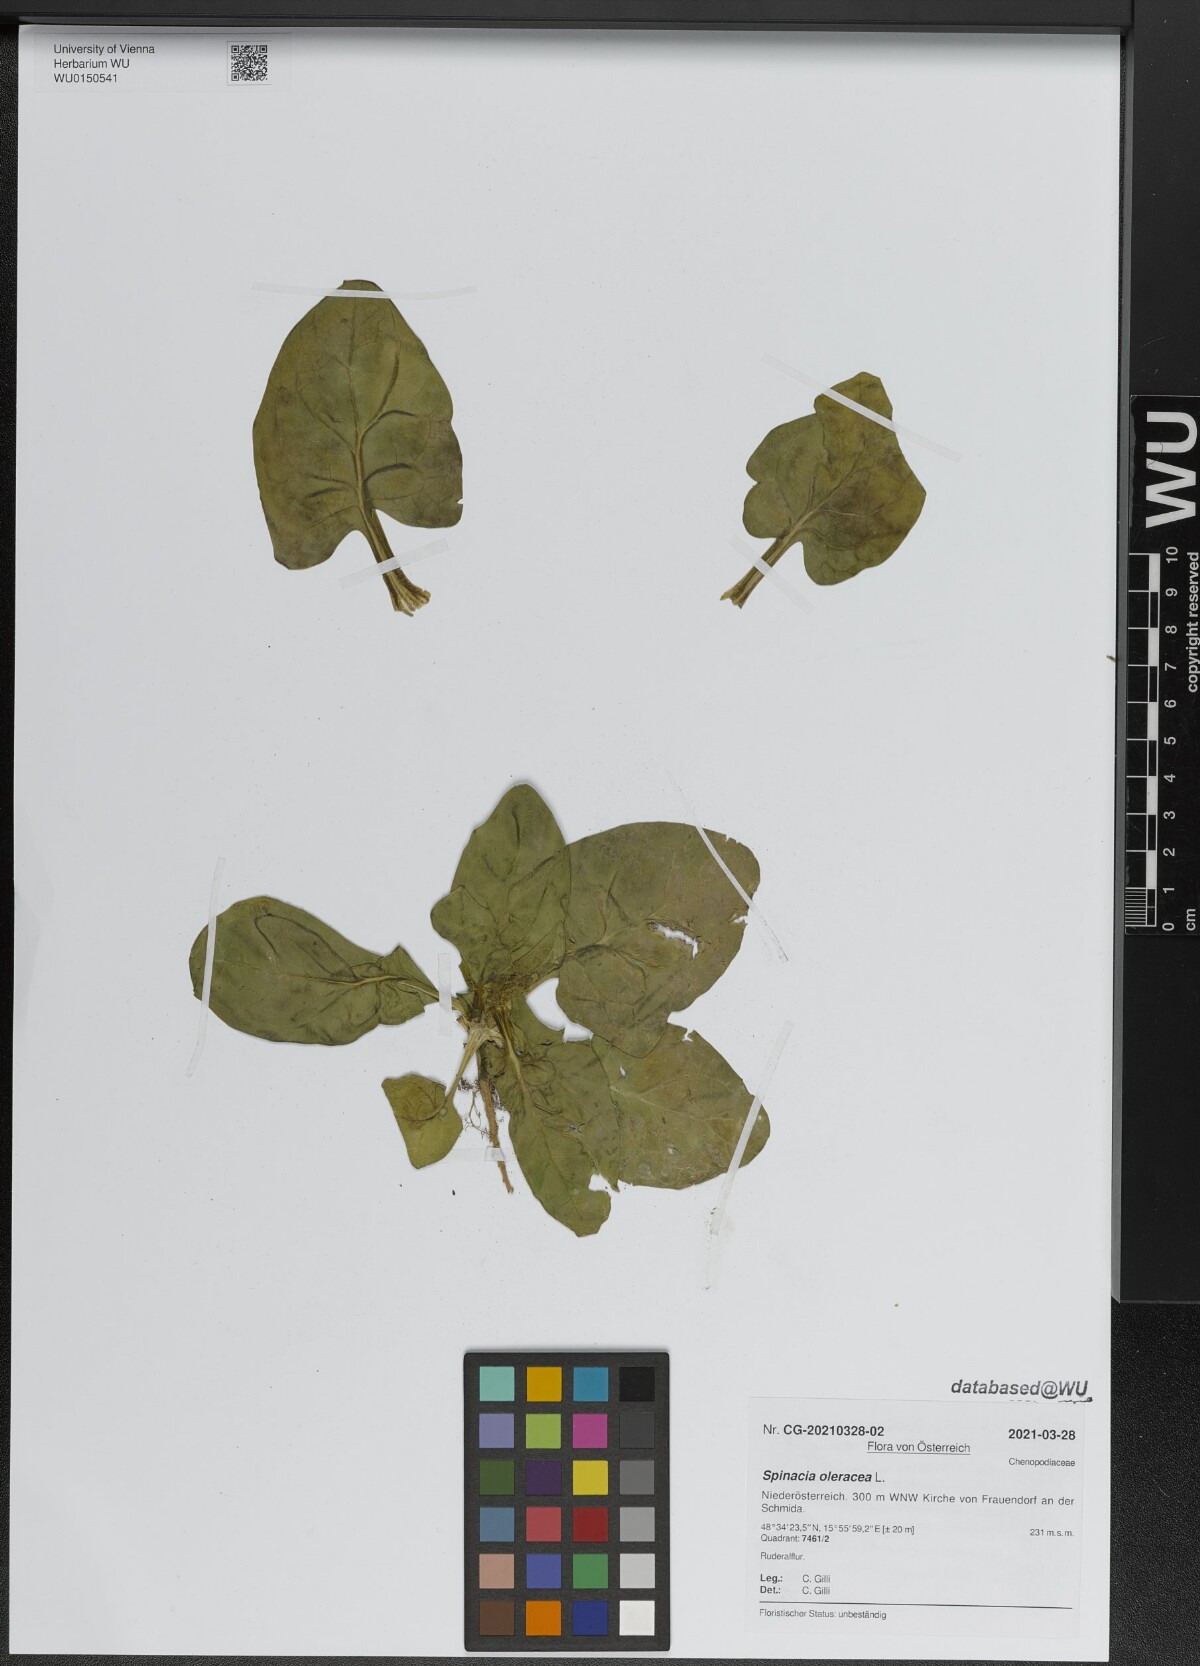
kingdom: Plantae
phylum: Tracheophyta
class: Magnoliopsida
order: Caryophyllales
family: Amaranthaceae
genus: Spinacia
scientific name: Spinacia oleracea
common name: Spinach
